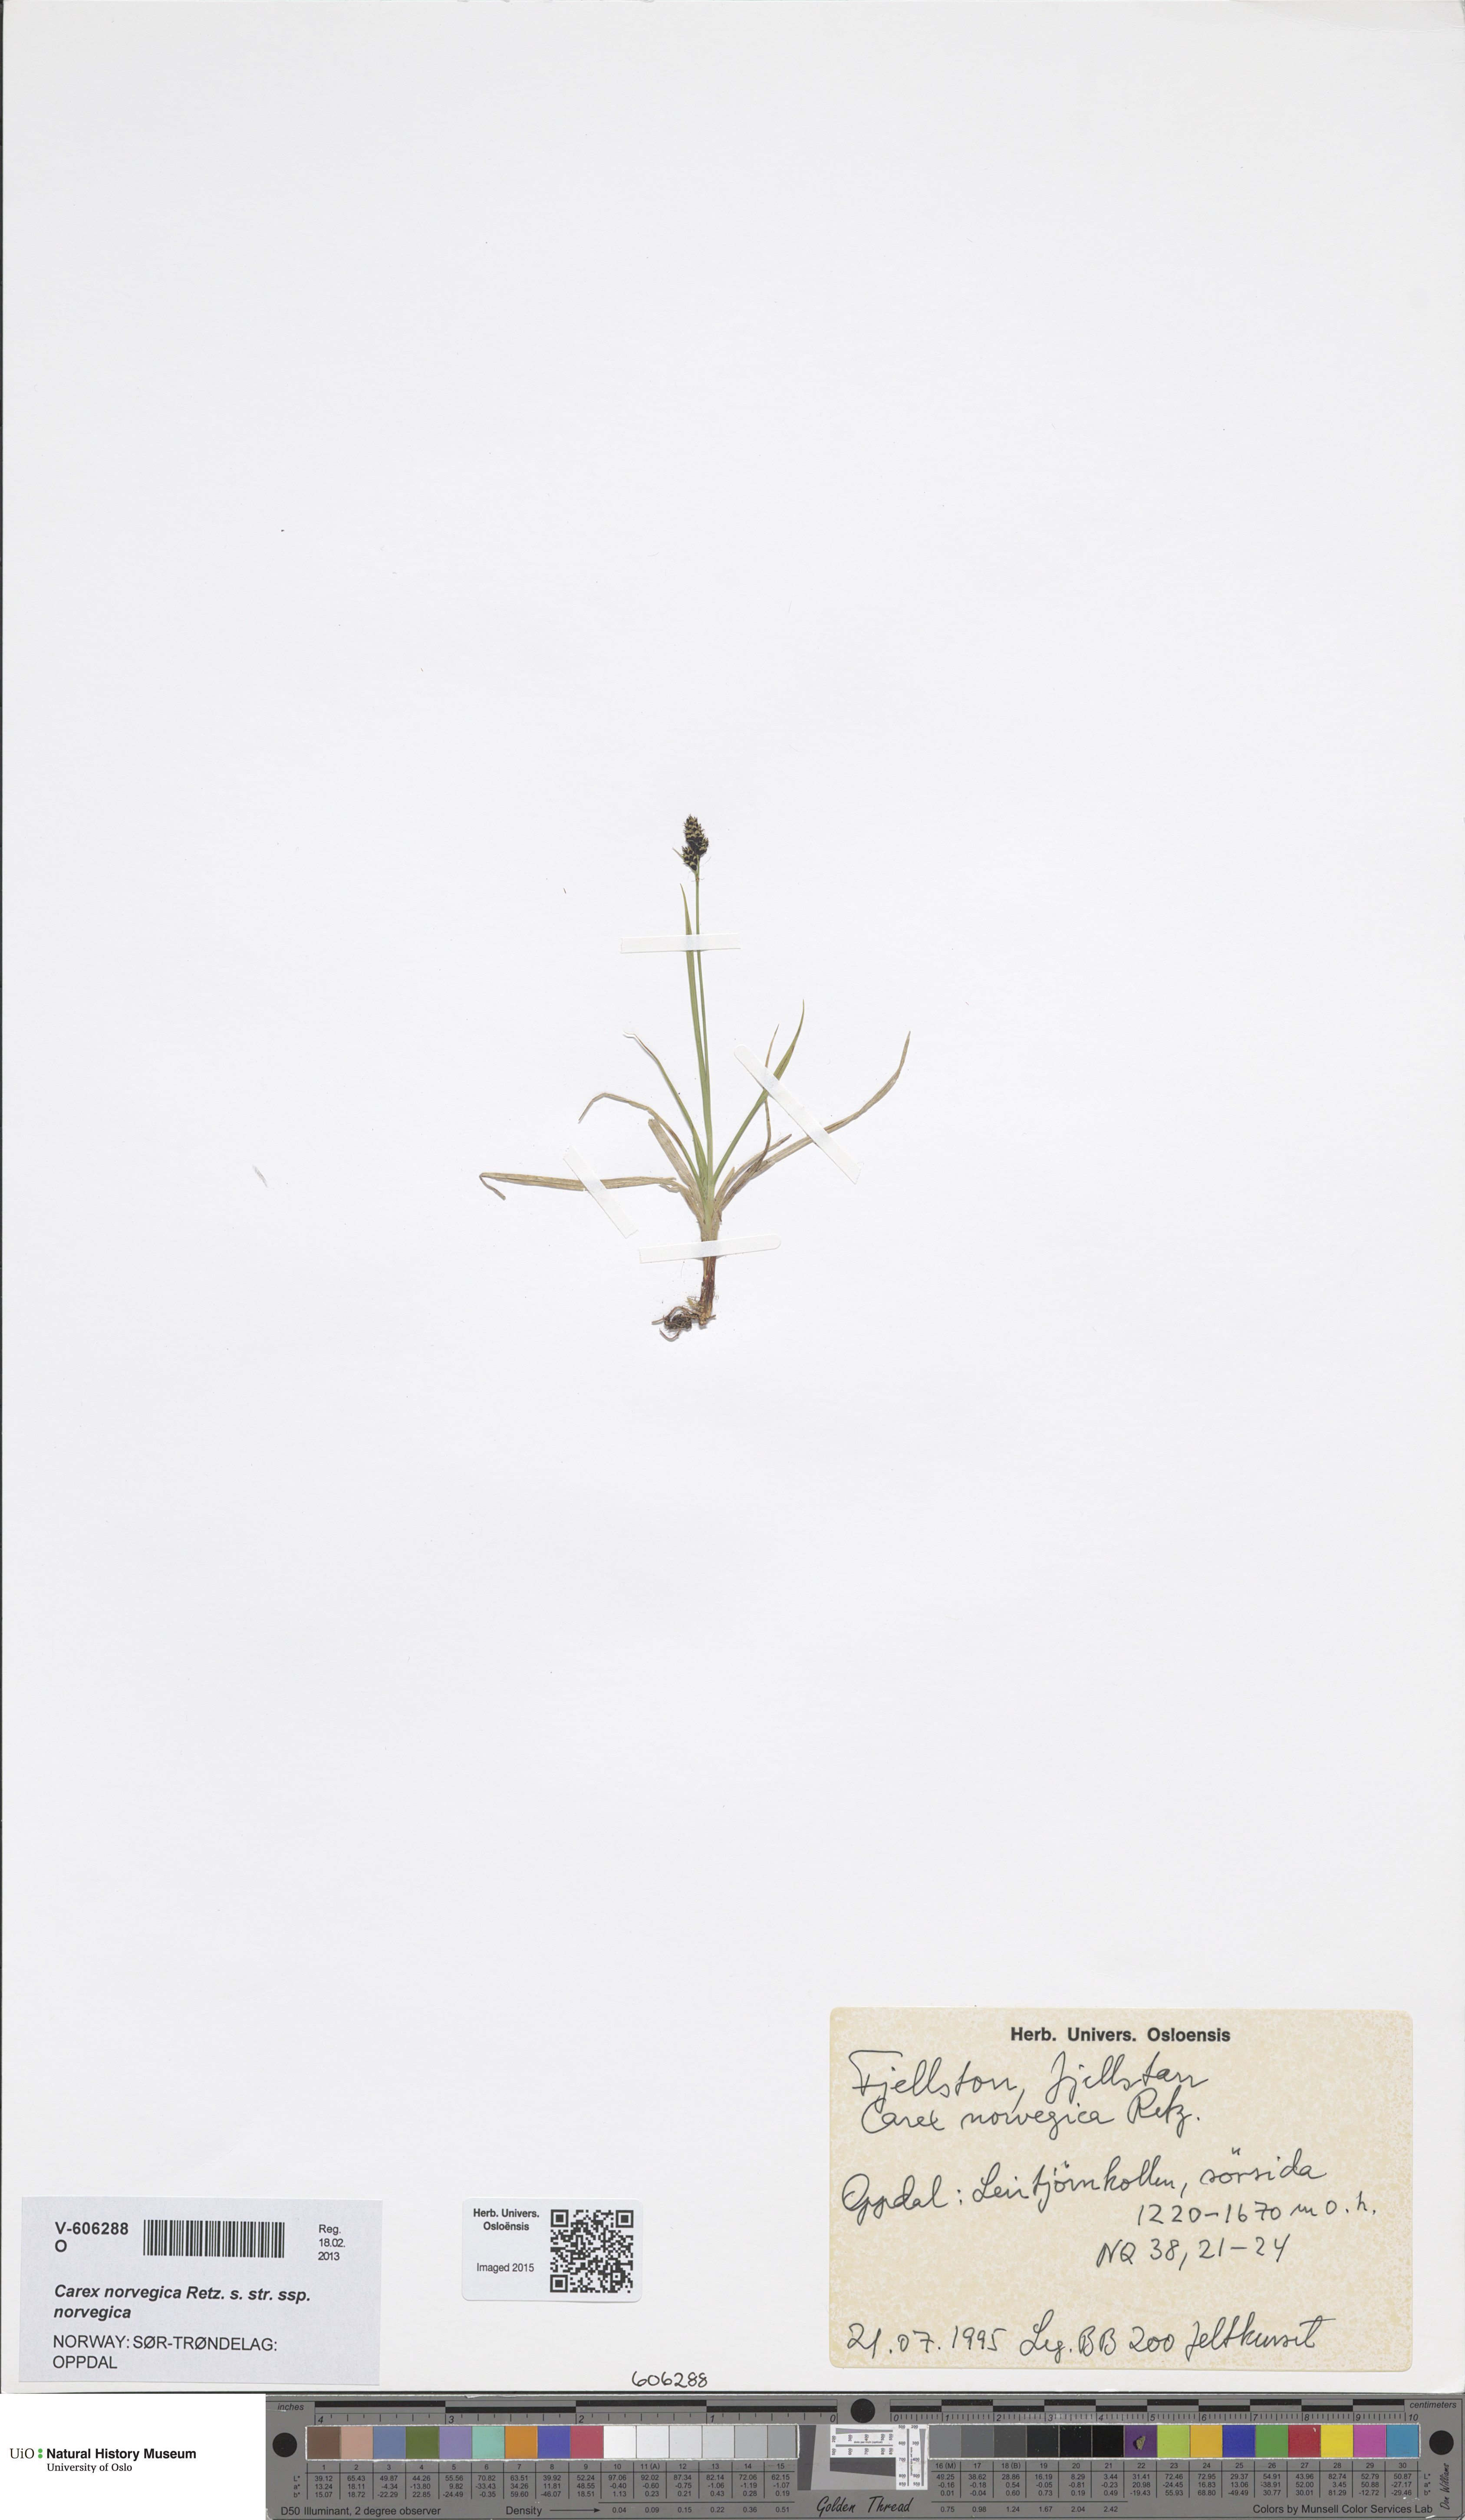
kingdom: Plantae
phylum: Tracheophyta
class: Liliopsida
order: Poales
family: Cyperaceae
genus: Carex
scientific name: Carex norvegica
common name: Close-headed alpine-sedge
